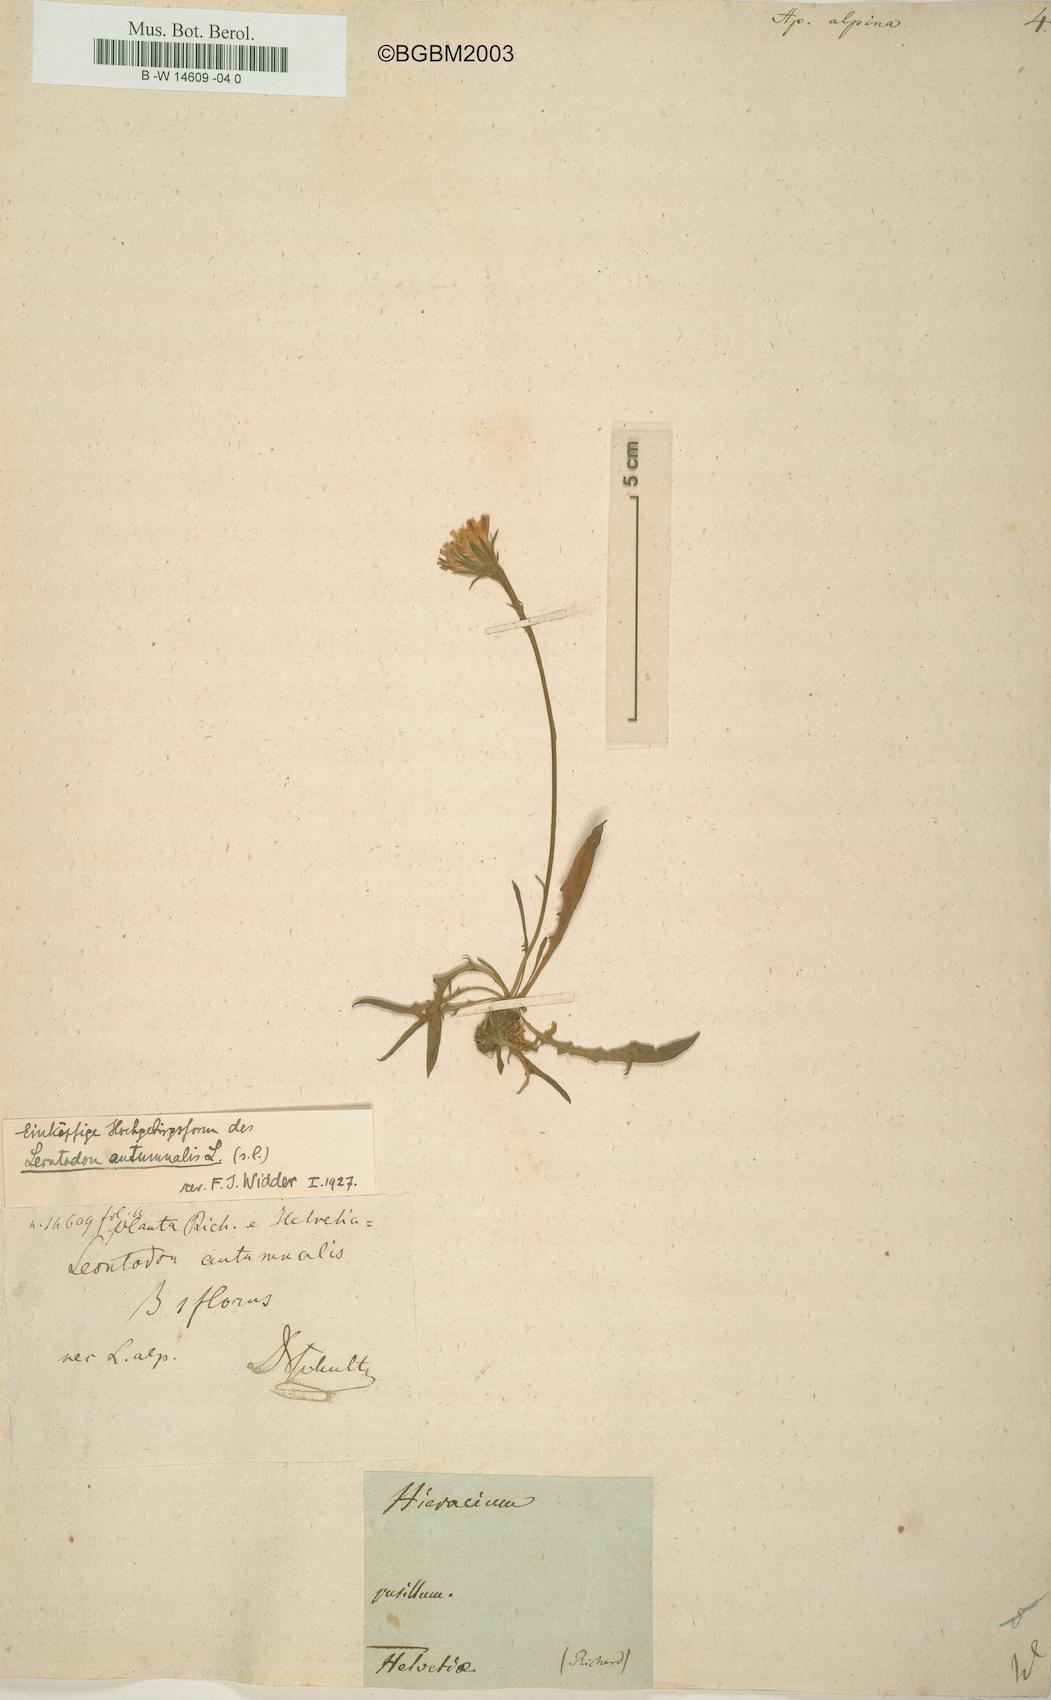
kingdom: Plantae
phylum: Tracheophyta
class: Magnoliopsida
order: Asterales
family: Asteraceae
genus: Scorzoneroides
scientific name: Scorzoneroides pyrenaica
